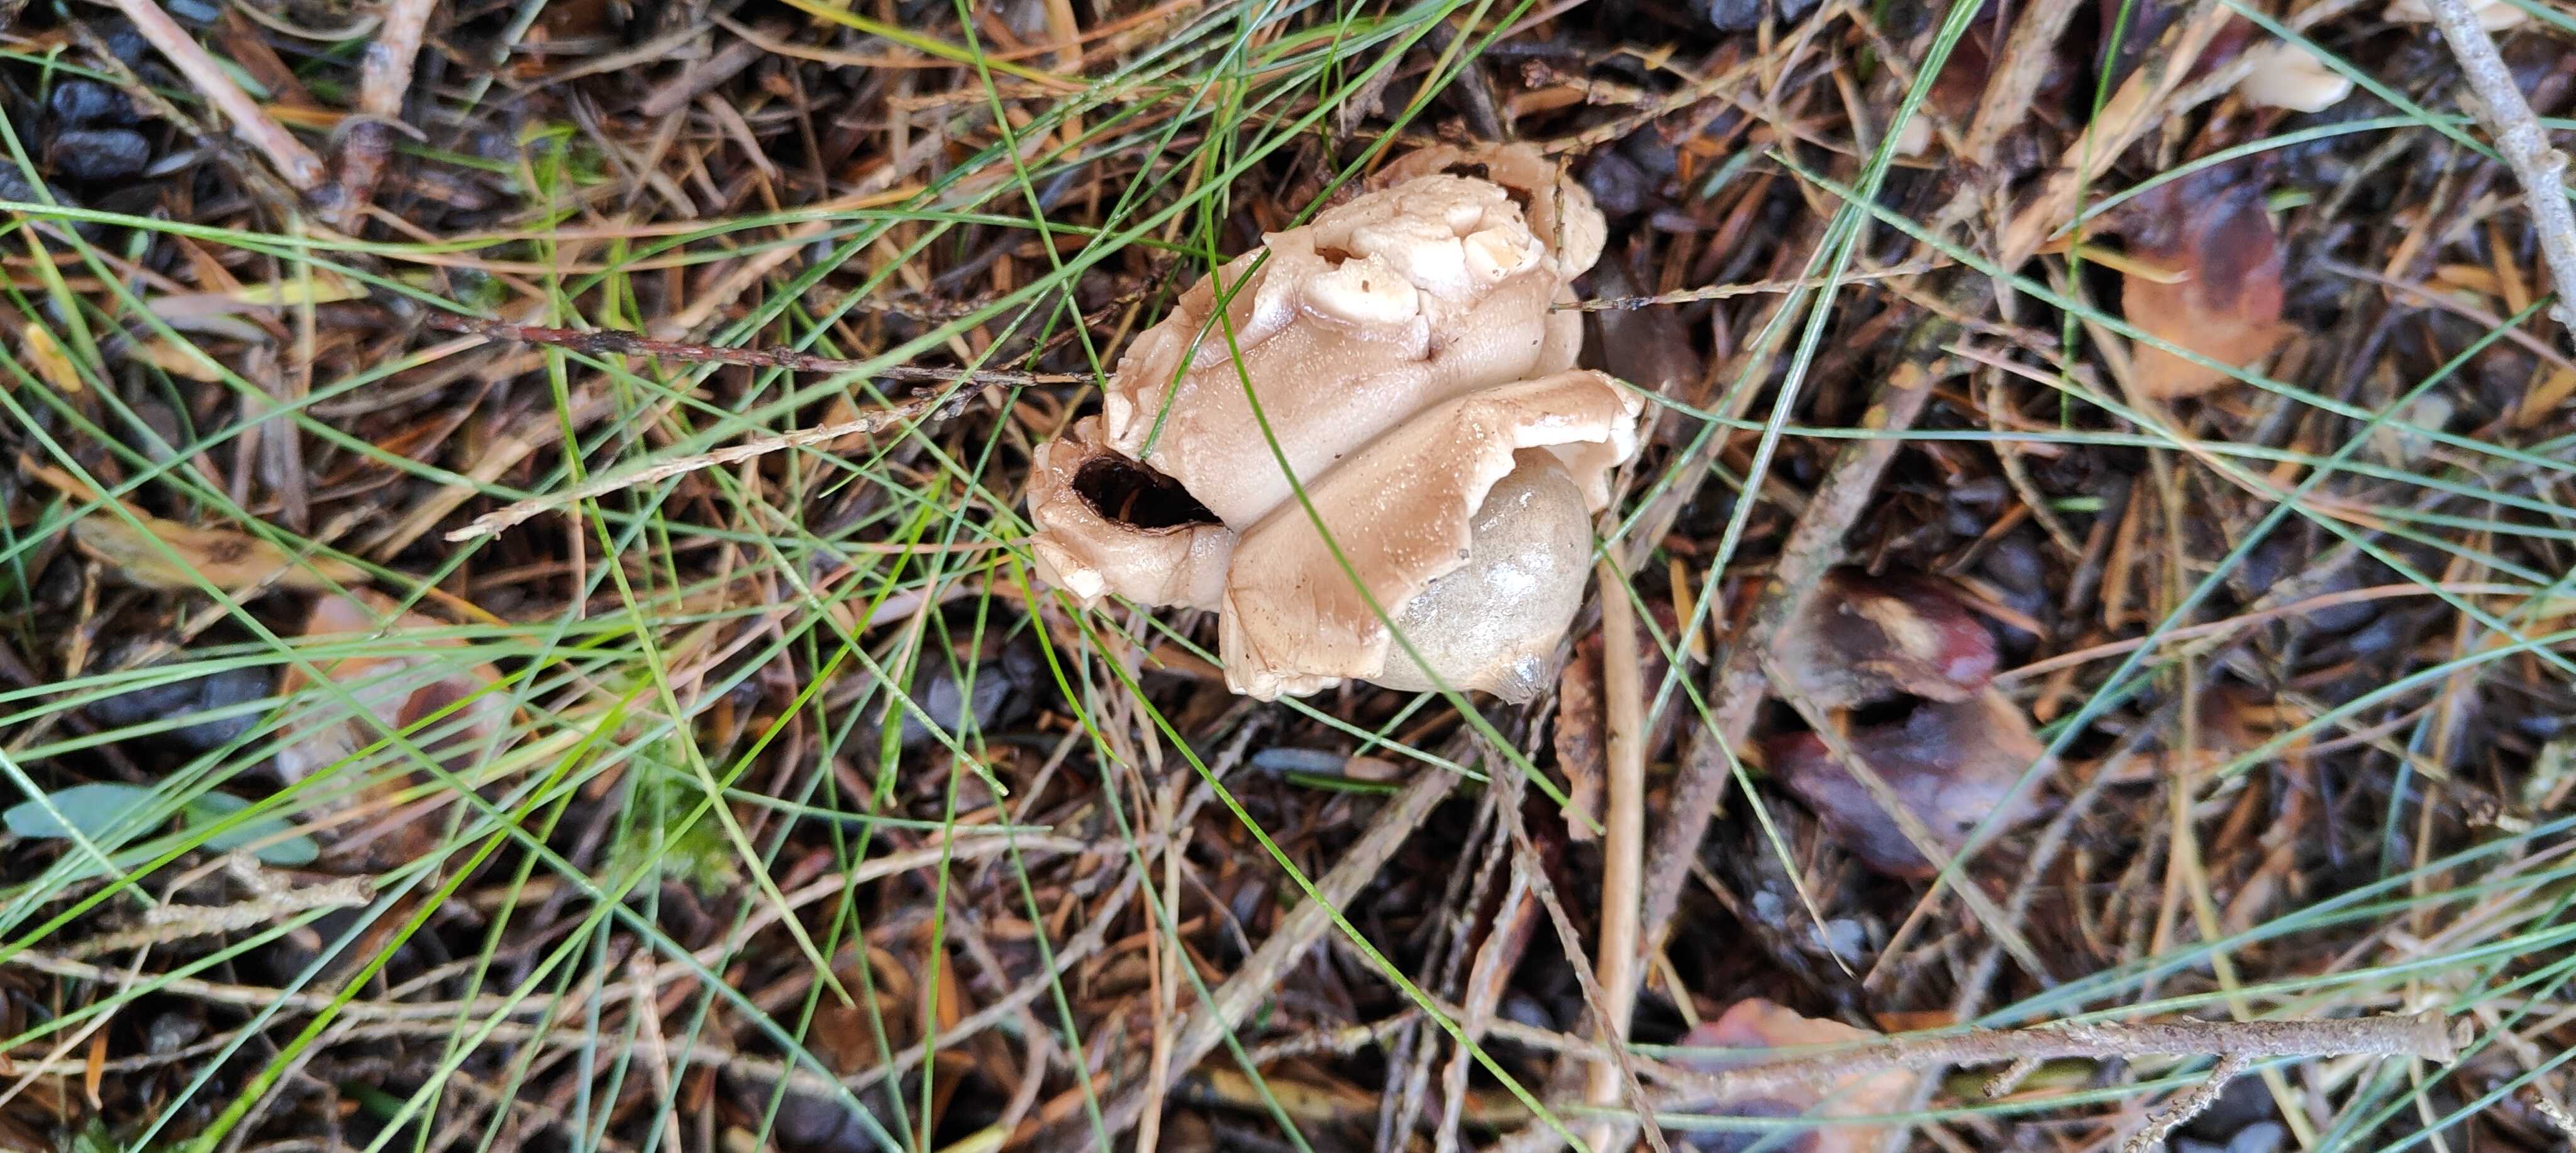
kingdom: Fungi
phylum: Basidiomycota
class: Agaricomycetes
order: Geastrales
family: Geastraceae
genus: Geastrum
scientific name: Geastrum michelianum
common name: kødet stjernebold
